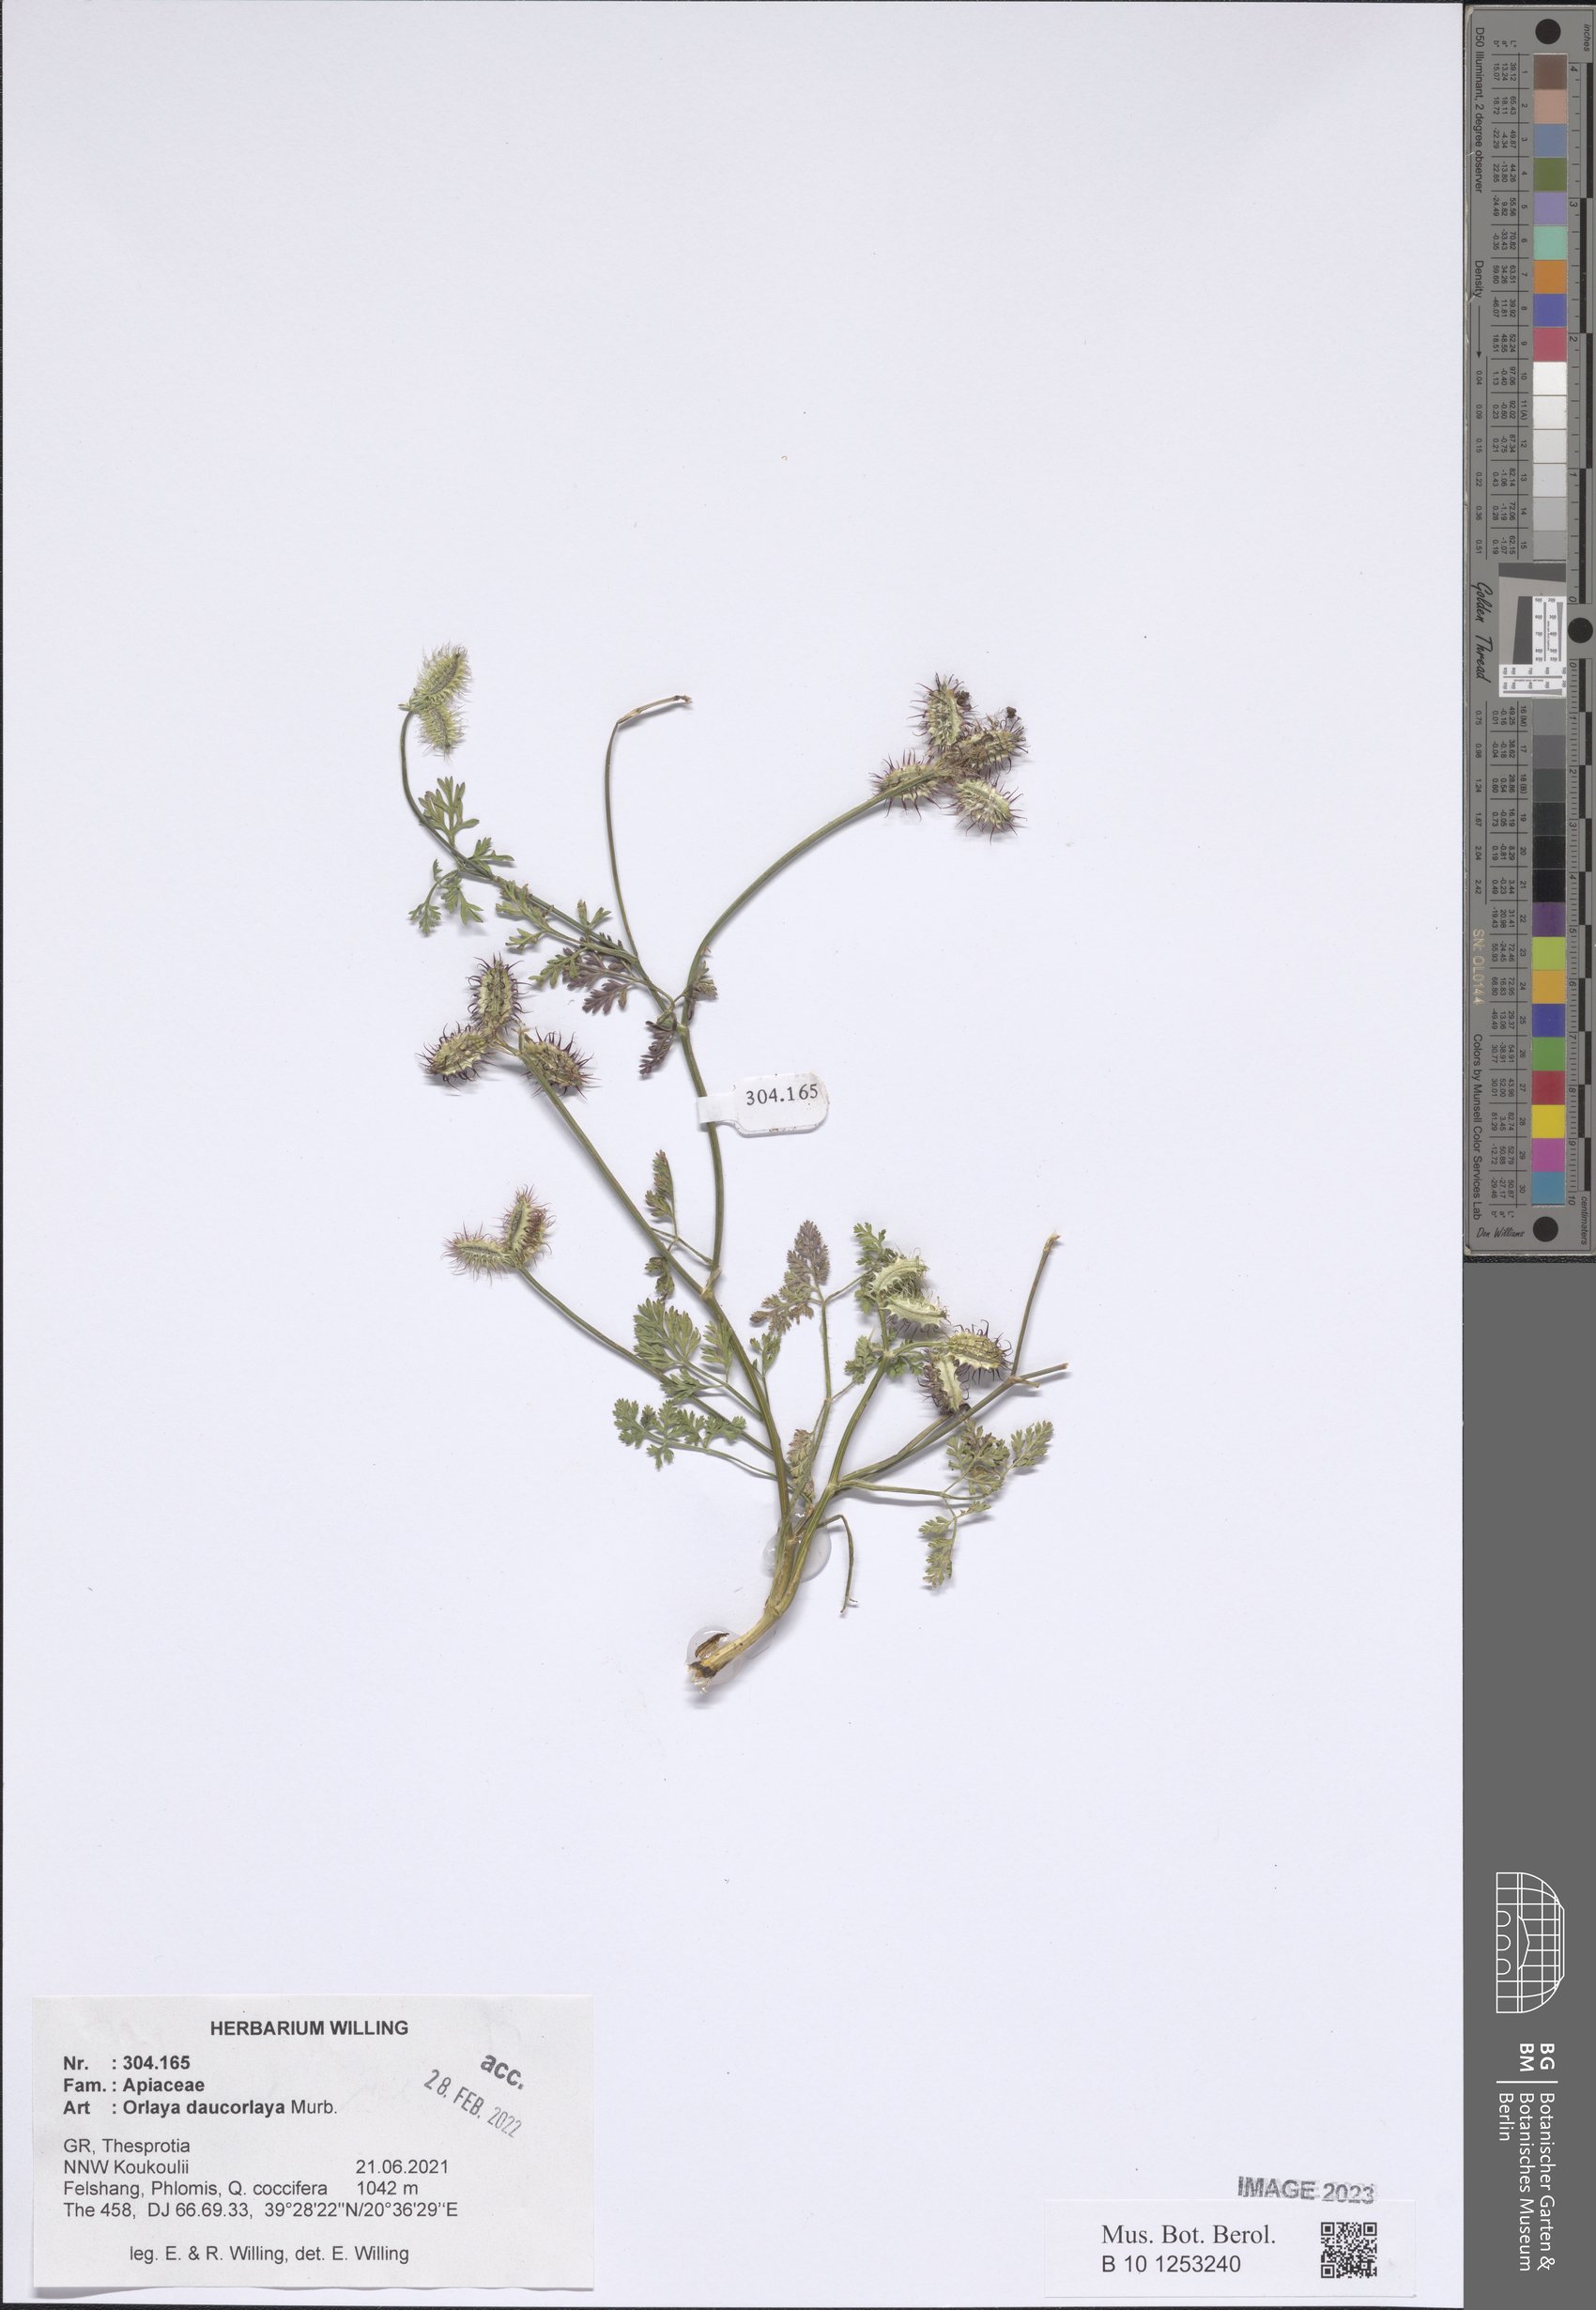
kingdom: Plantae
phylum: Tracheophyta
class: Magnoliopsida
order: Apiales
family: Apiaceae
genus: Orlaya
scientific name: Orlaya daucorlaya
